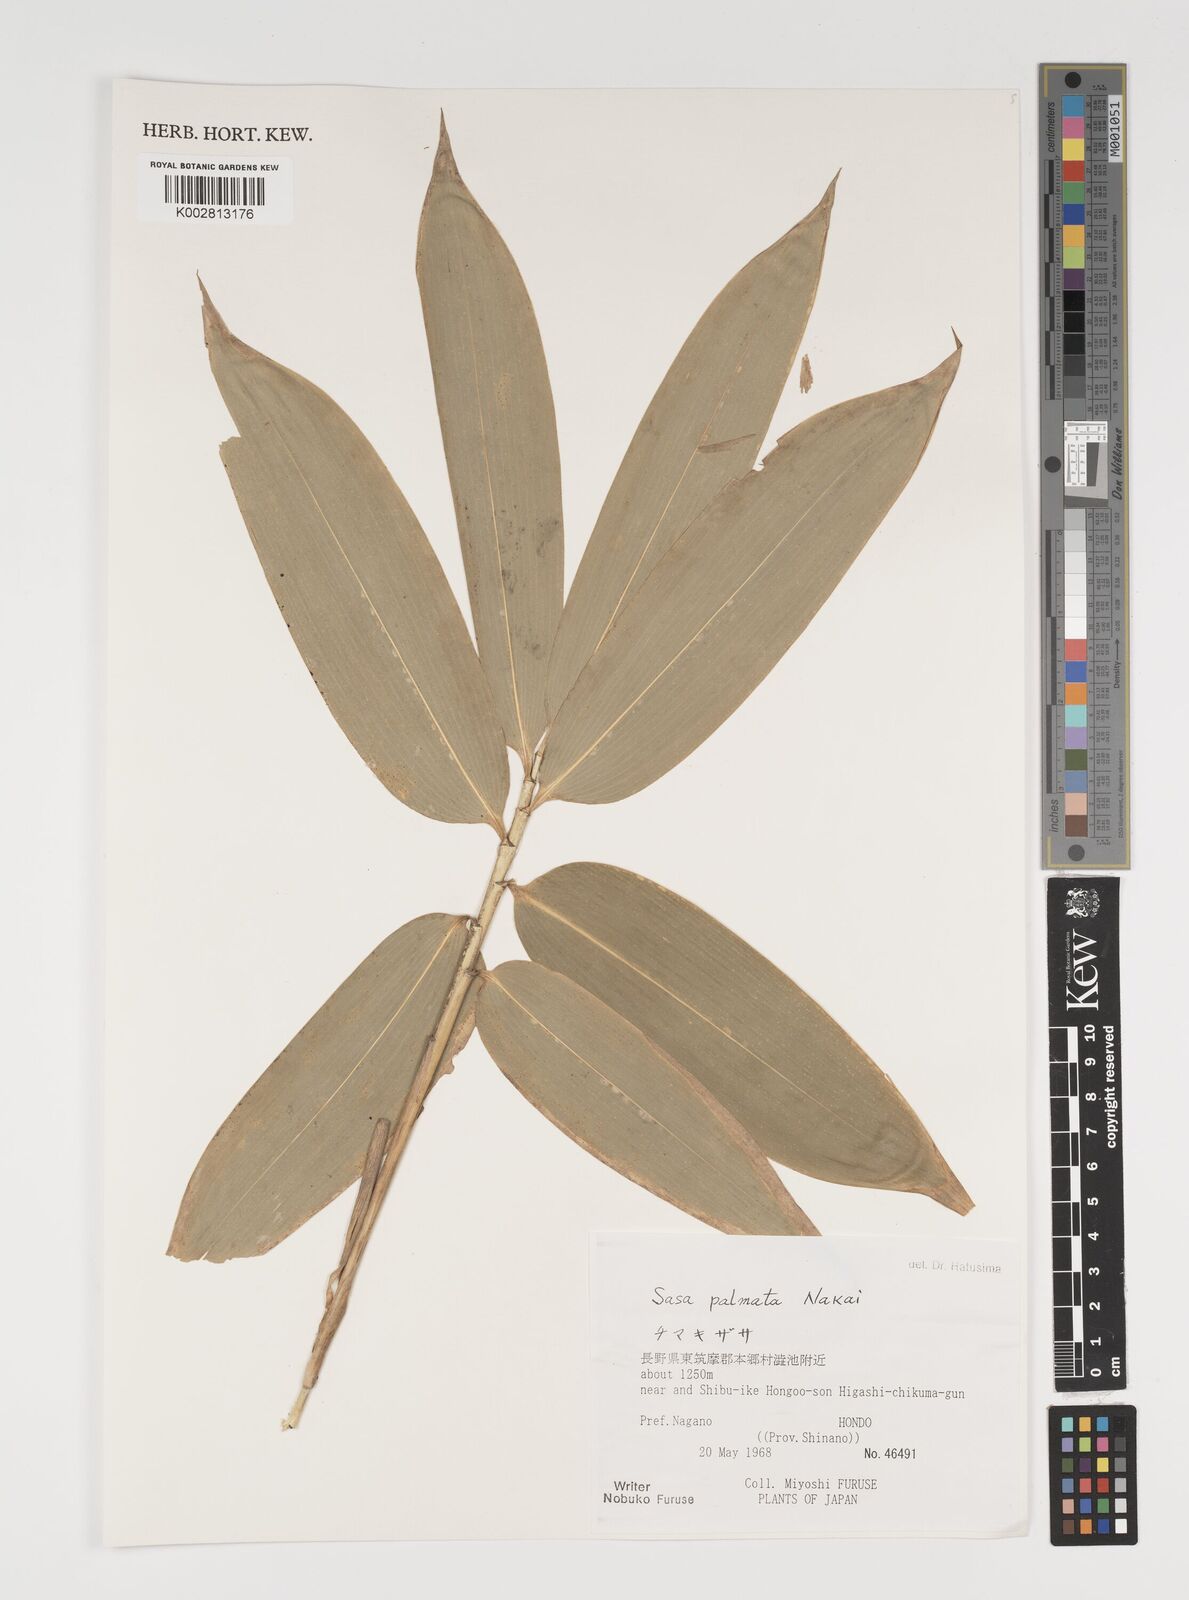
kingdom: Plantae
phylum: Tracheophyta
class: Liliopsida
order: Poales
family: Poaceae
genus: Sasa
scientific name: Sasa palmata
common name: Broad-leaved bamboo
